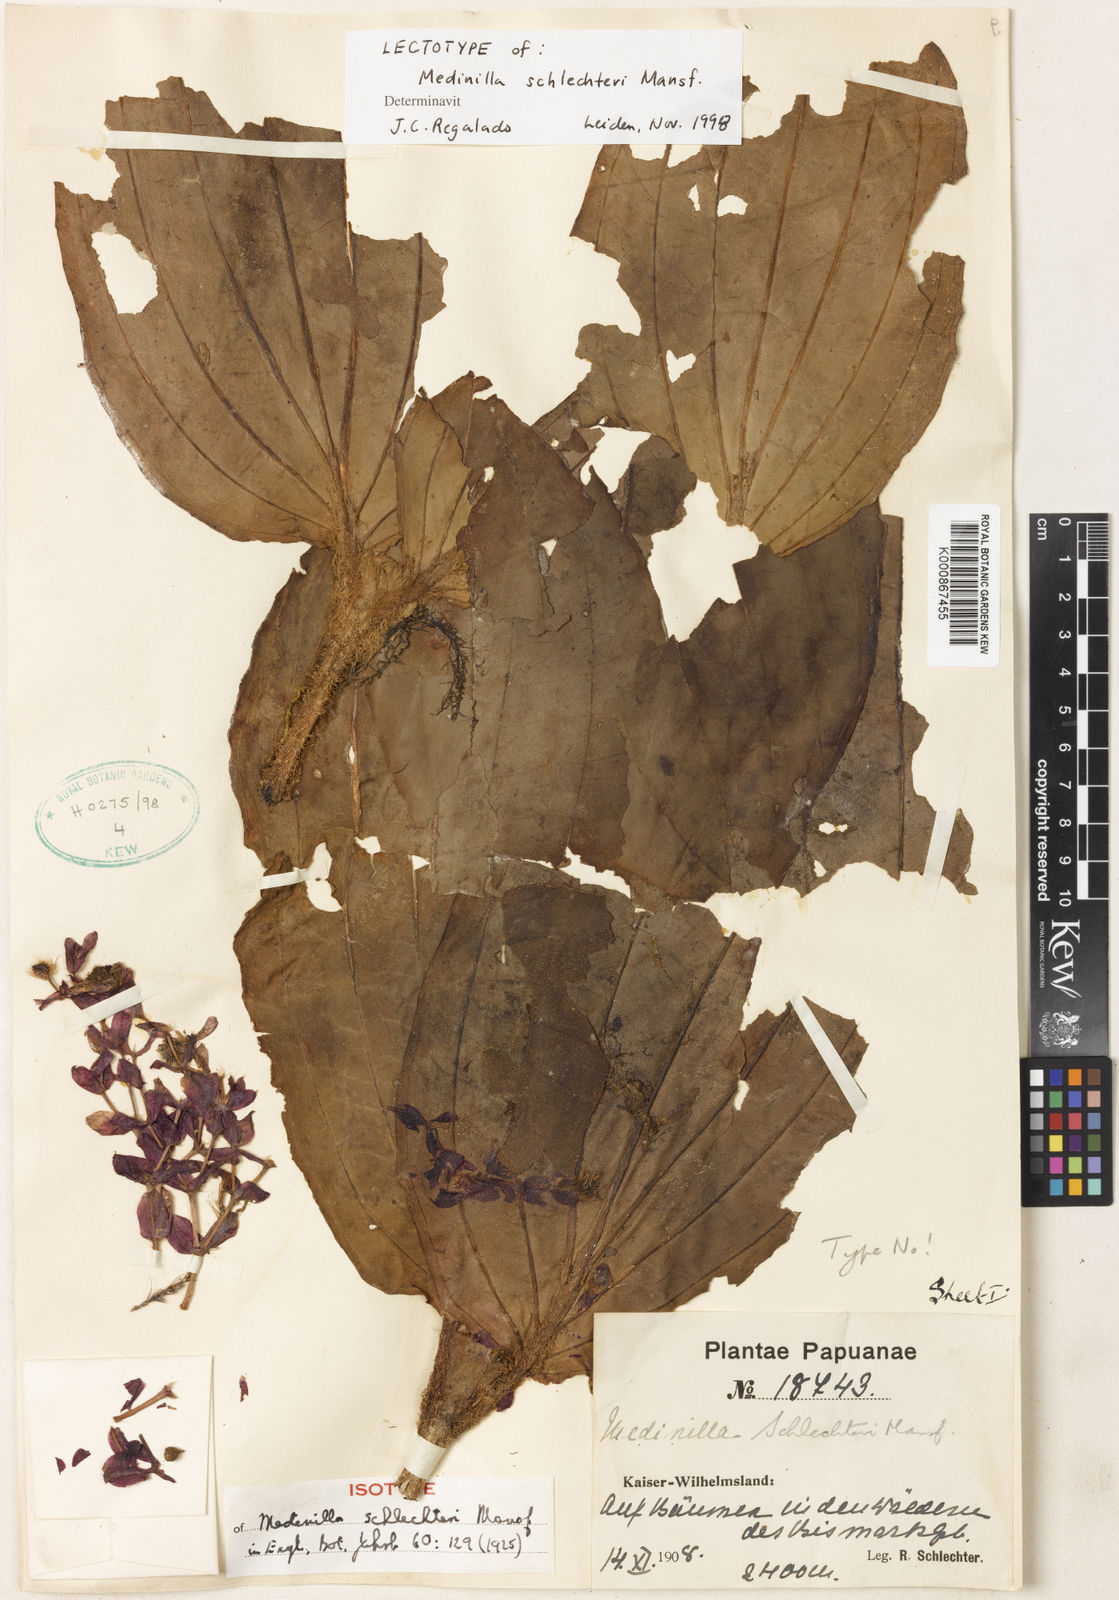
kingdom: Plantae
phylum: Tracheophyta
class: Magnoliopsida
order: Myrtales
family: Melastomataceae
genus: Medinilla
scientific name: Medinilla schlechteri
